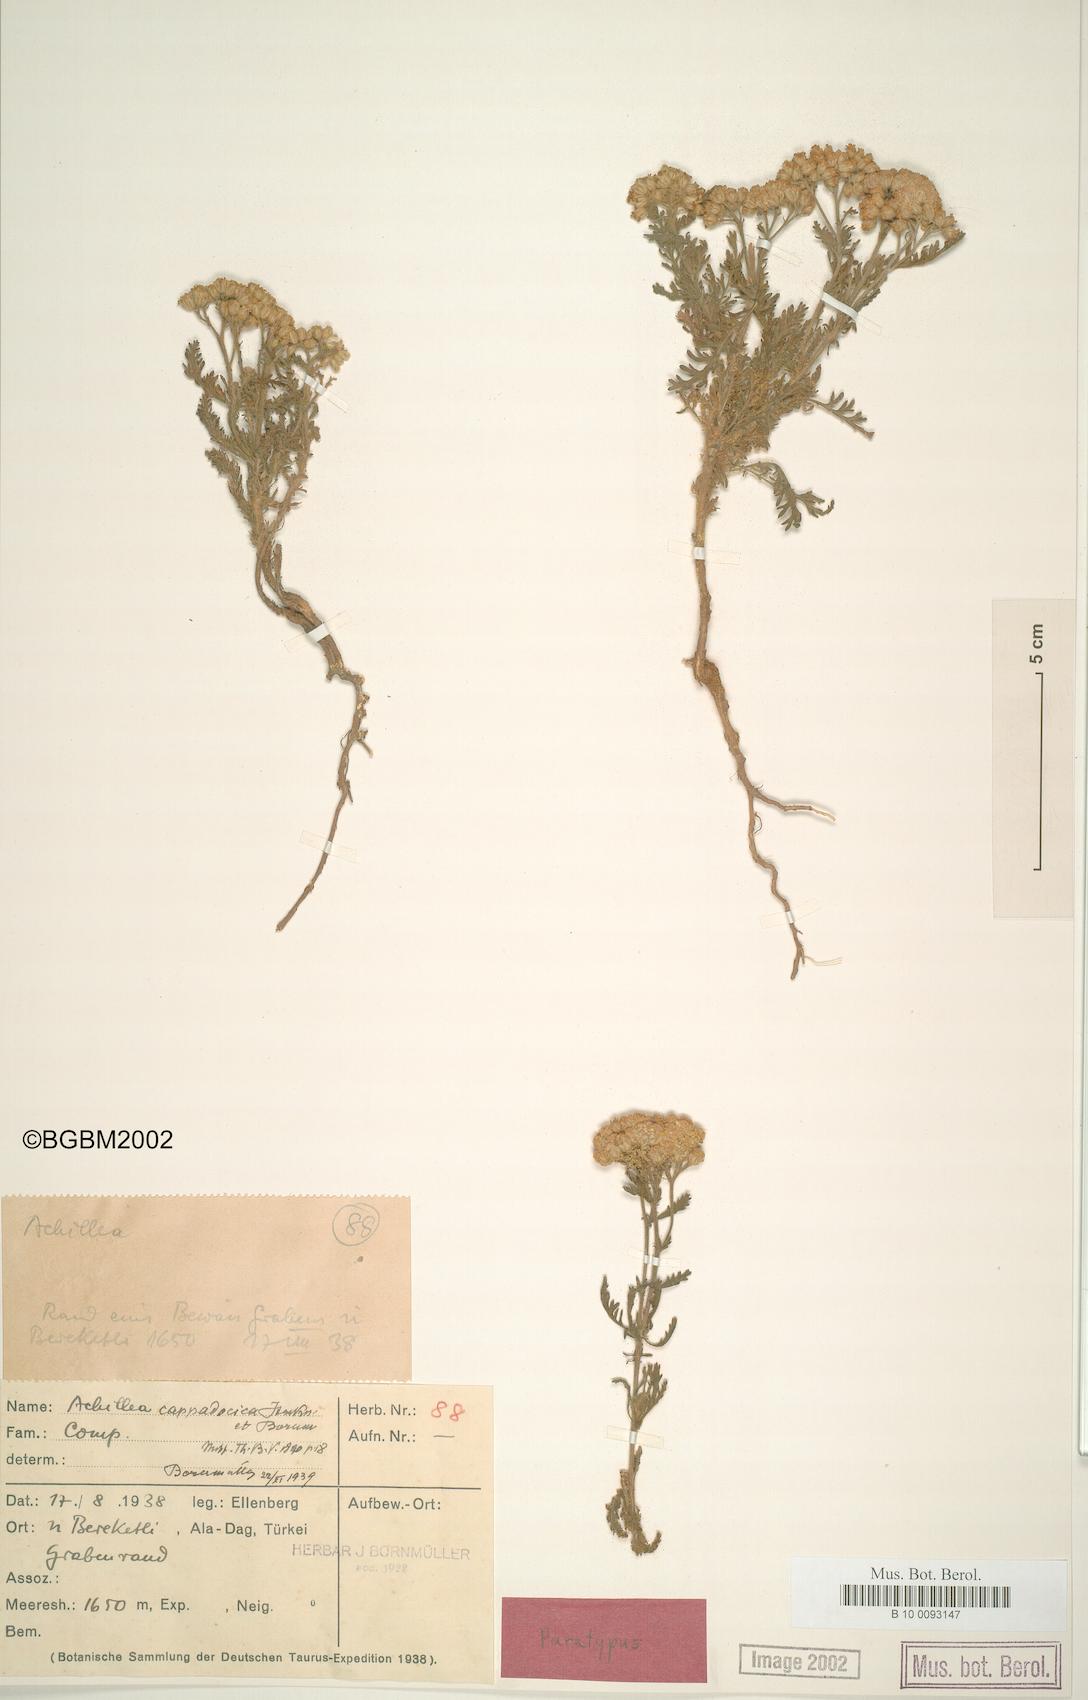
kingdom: Plantae
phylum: Tracheophyta
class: Magnoliopsida
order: Asterales
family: Asteraceae
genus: Achillea
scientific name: Achillea cappadocica
